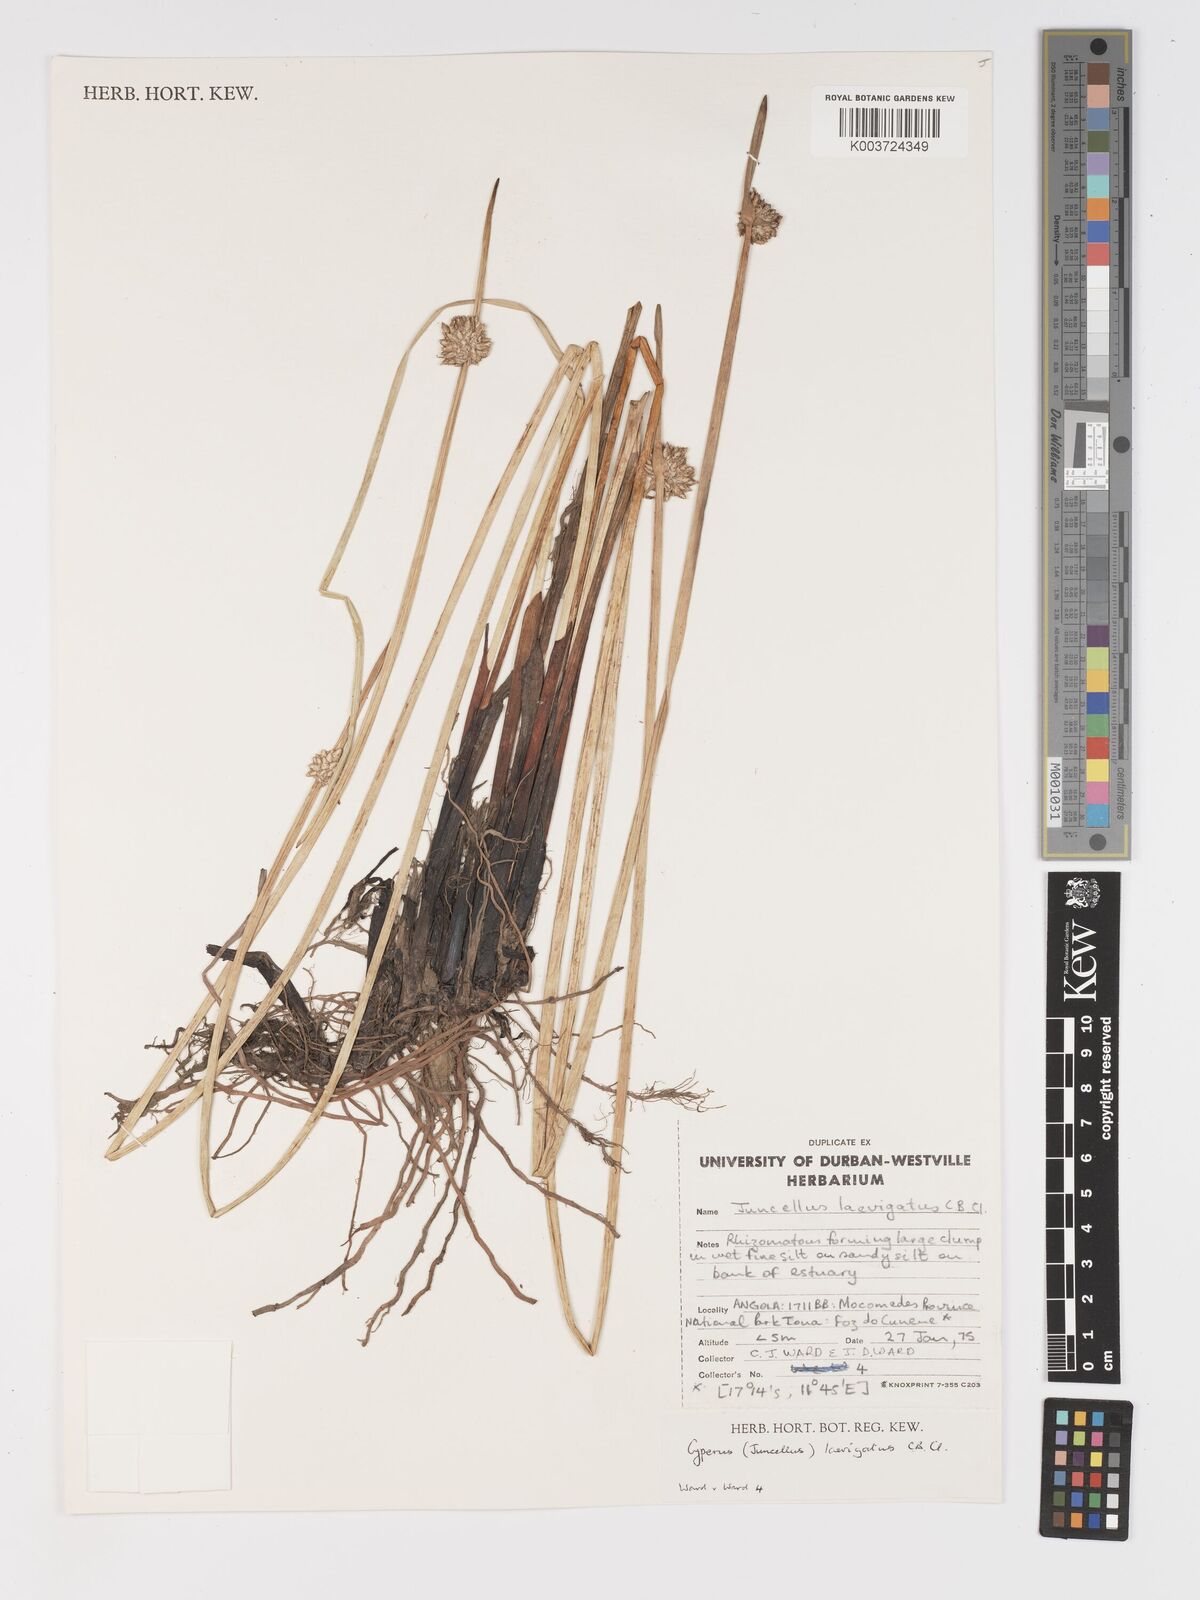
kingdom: Plantae
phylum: Tracheophyta
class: Liliopsida
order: Poales
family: Cyperaceae
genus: Cyperus
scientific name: Cyperus laevigatus
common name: Smooth flat sedge
